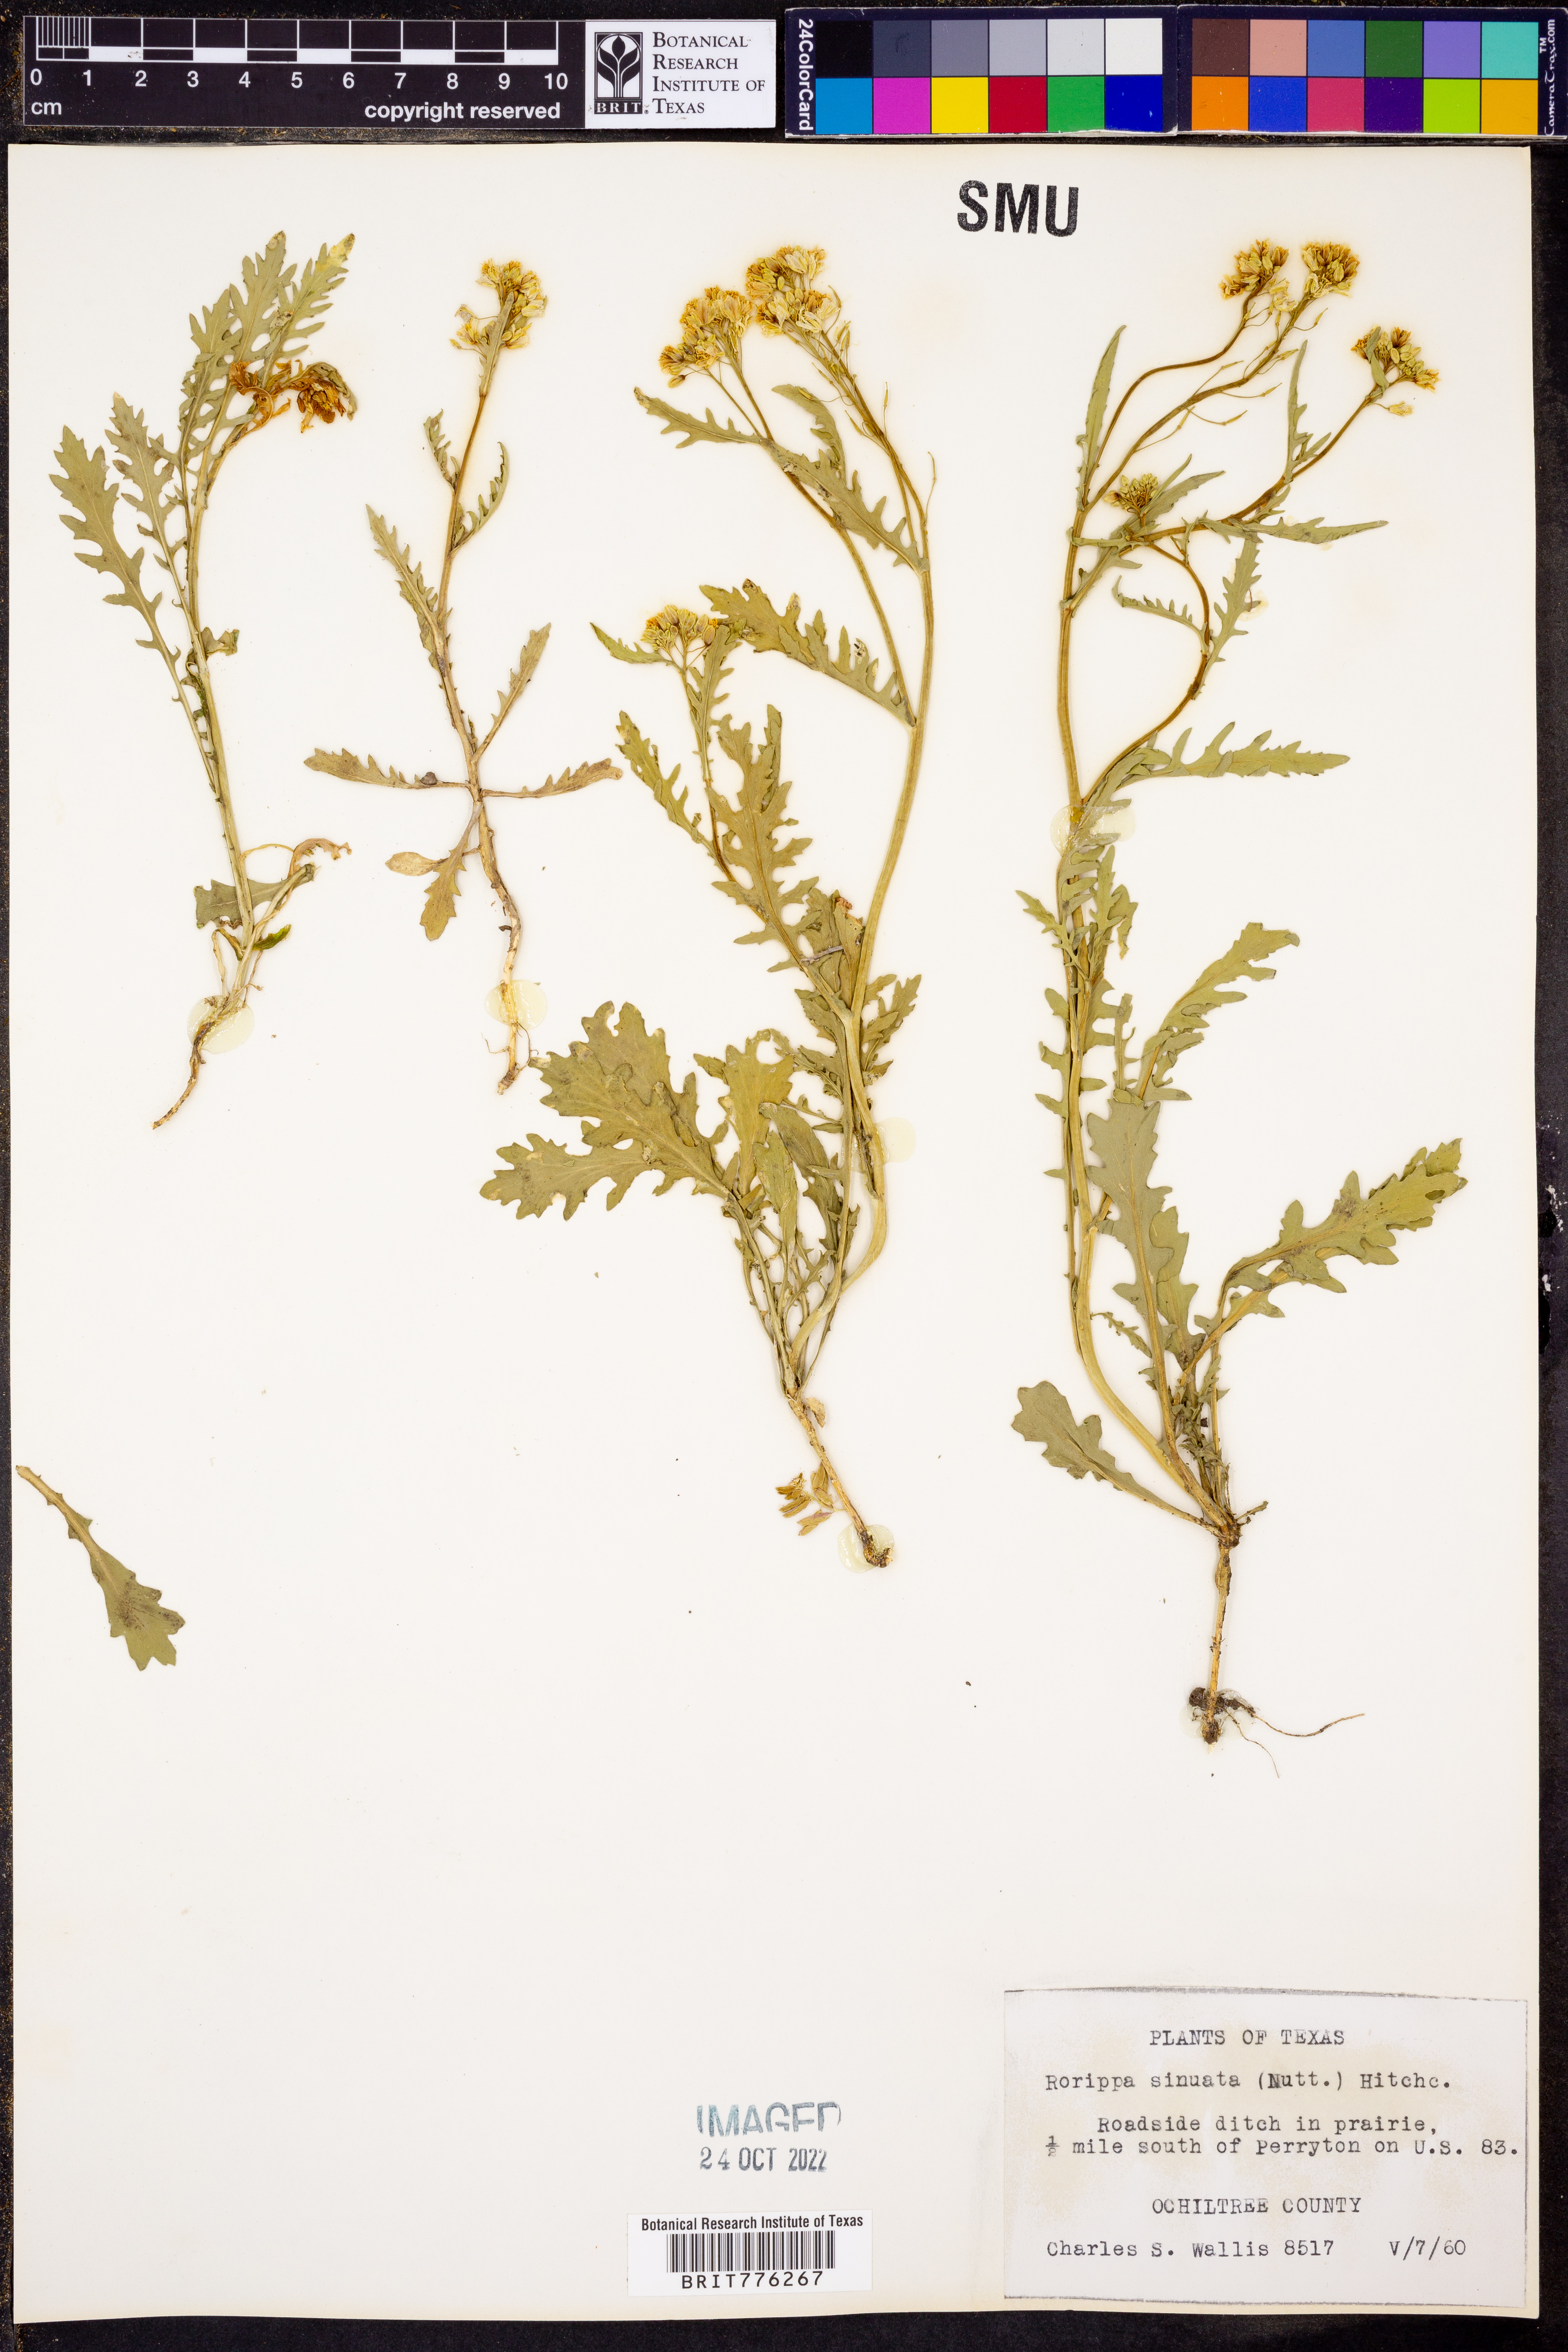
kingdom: Plantae
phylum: Tracheophyta
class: Magnoliopsida
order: Brassicales
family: Brassicaceae
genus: Rorippa
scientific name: Rorippa sinuata
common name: Spread yellow cress
